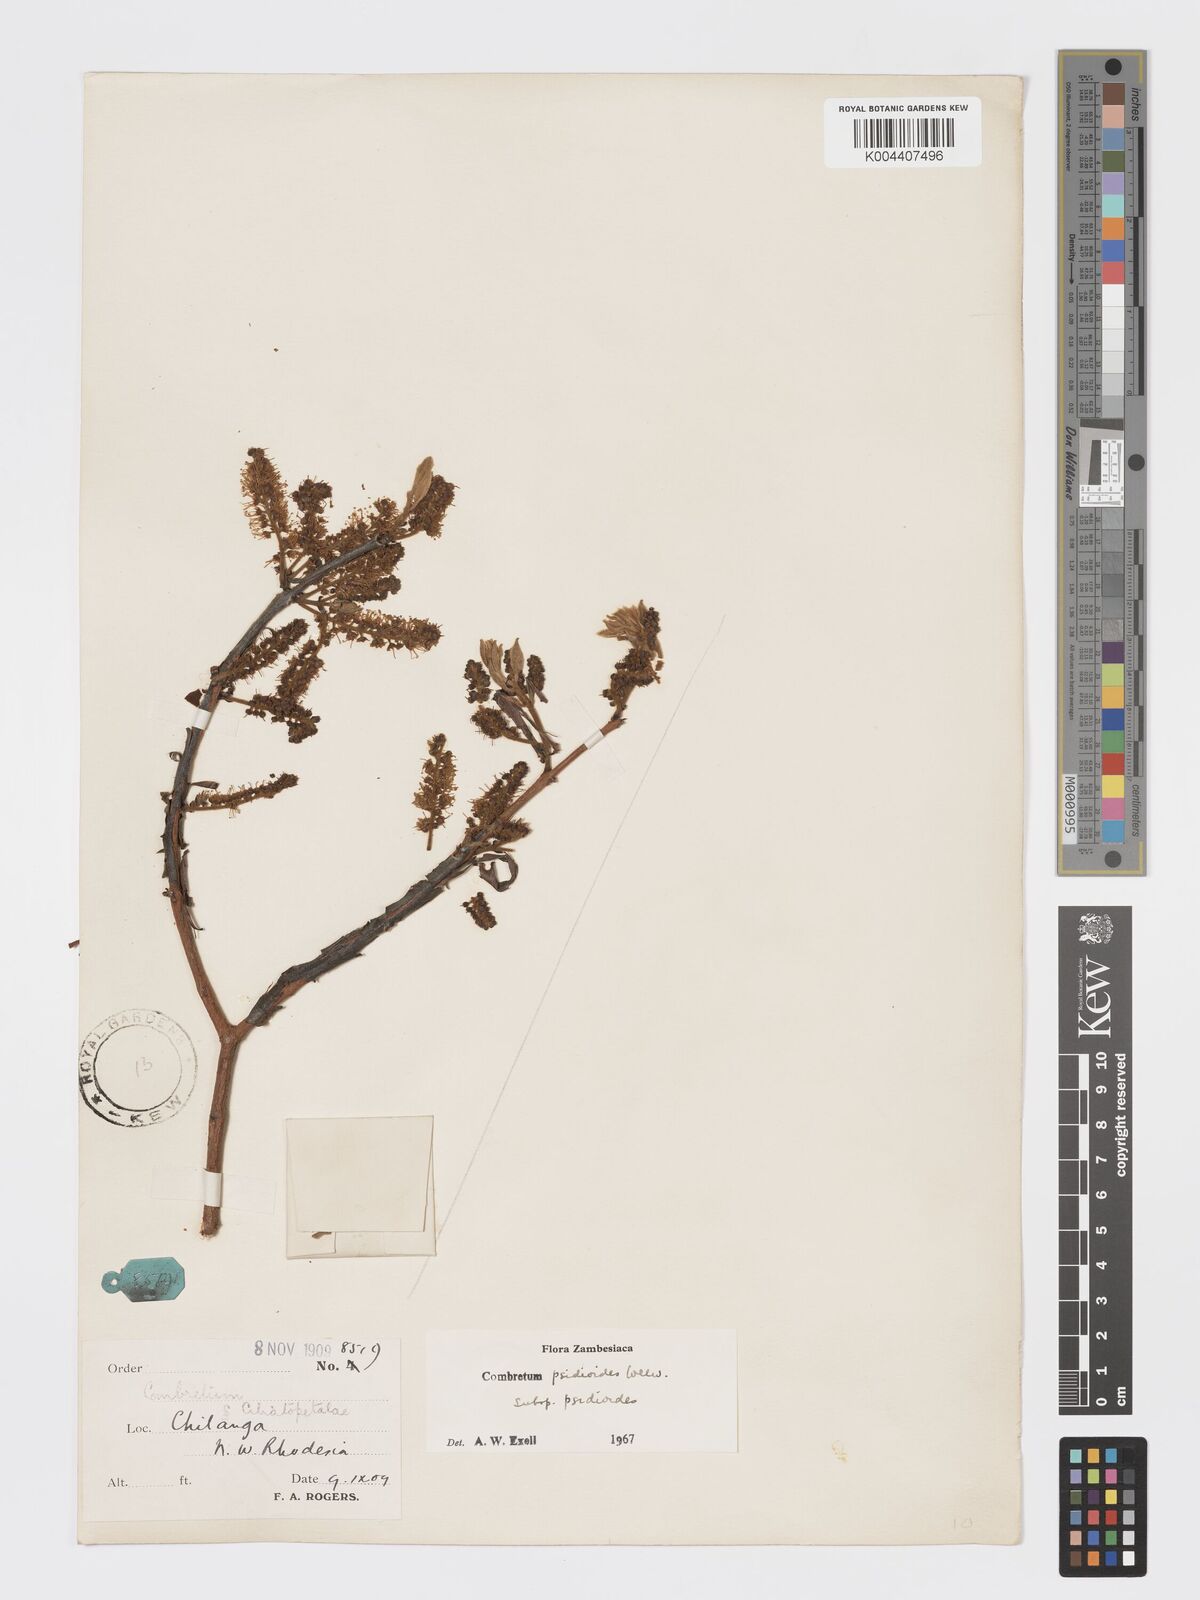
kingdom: Plantae
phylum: Tracheophyta
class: Magnoliopsida
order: Myrtales
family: Combretaceae
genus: Combretum
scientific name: Combretum psidioides
